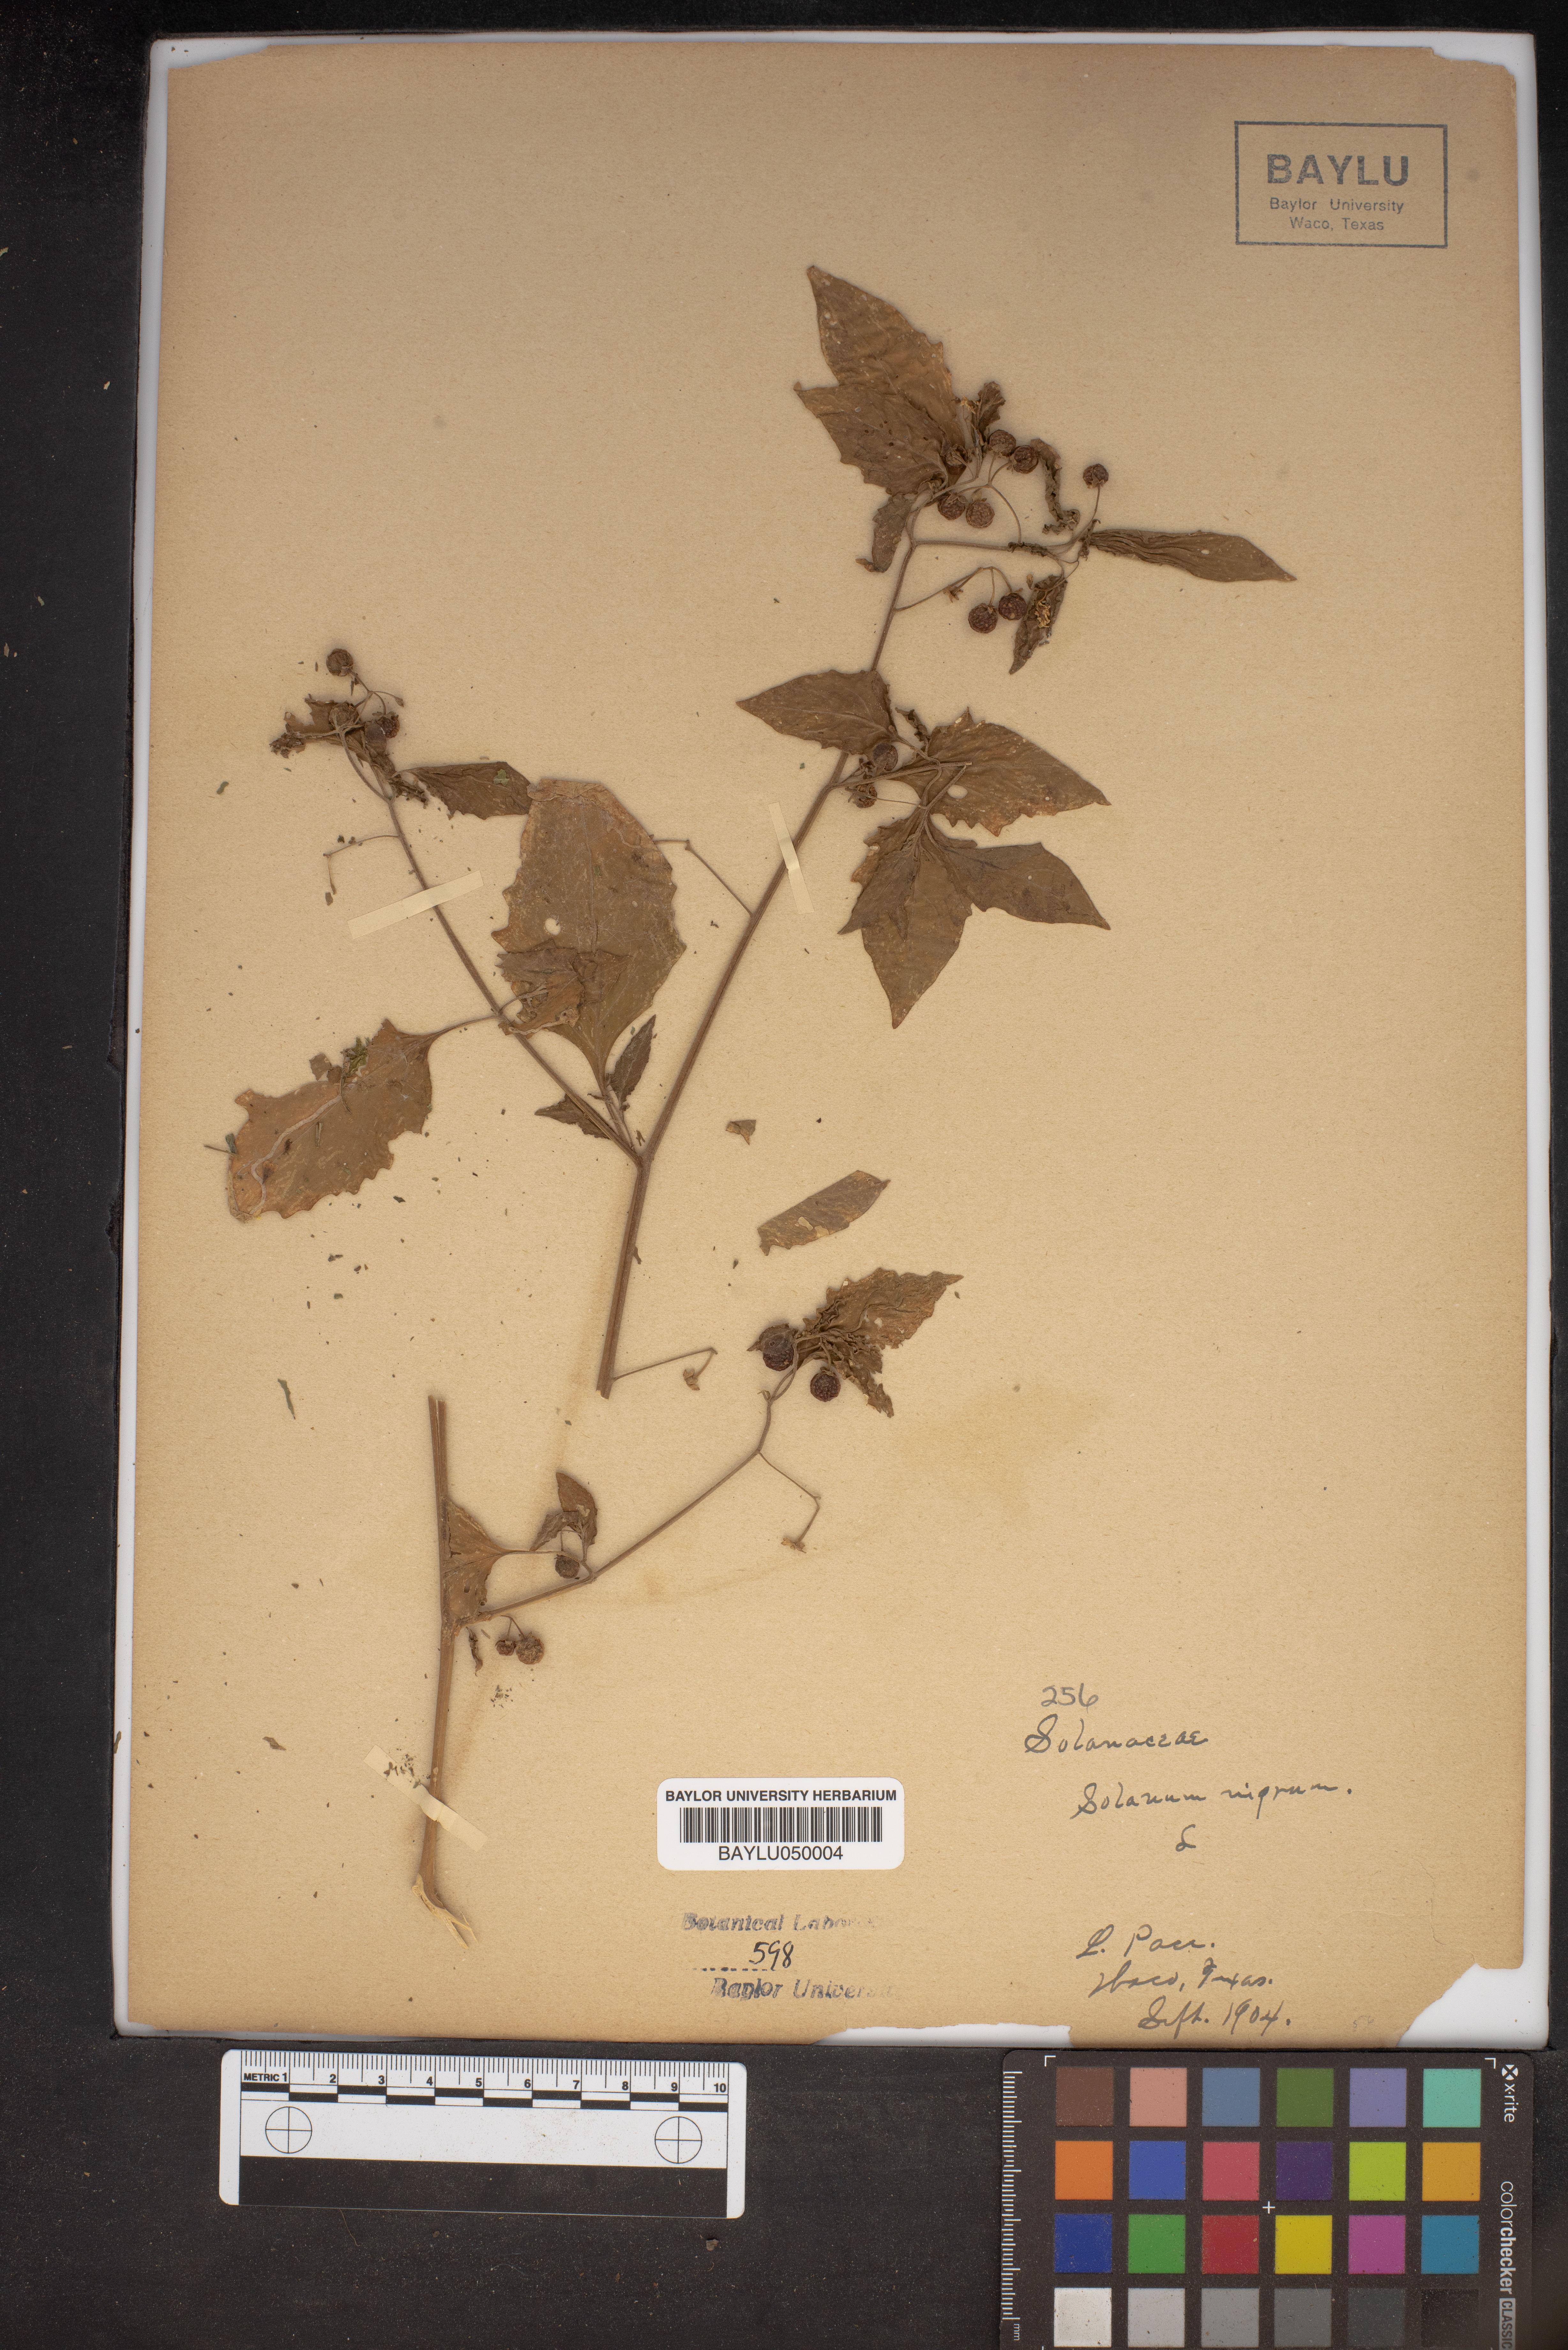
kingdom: Plantae
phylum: Tracheophyta
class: Magnoliopsida
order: Solanales
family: Solanaceae
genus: Solanum
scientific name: Solanum nigrum
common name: Black nightshade
